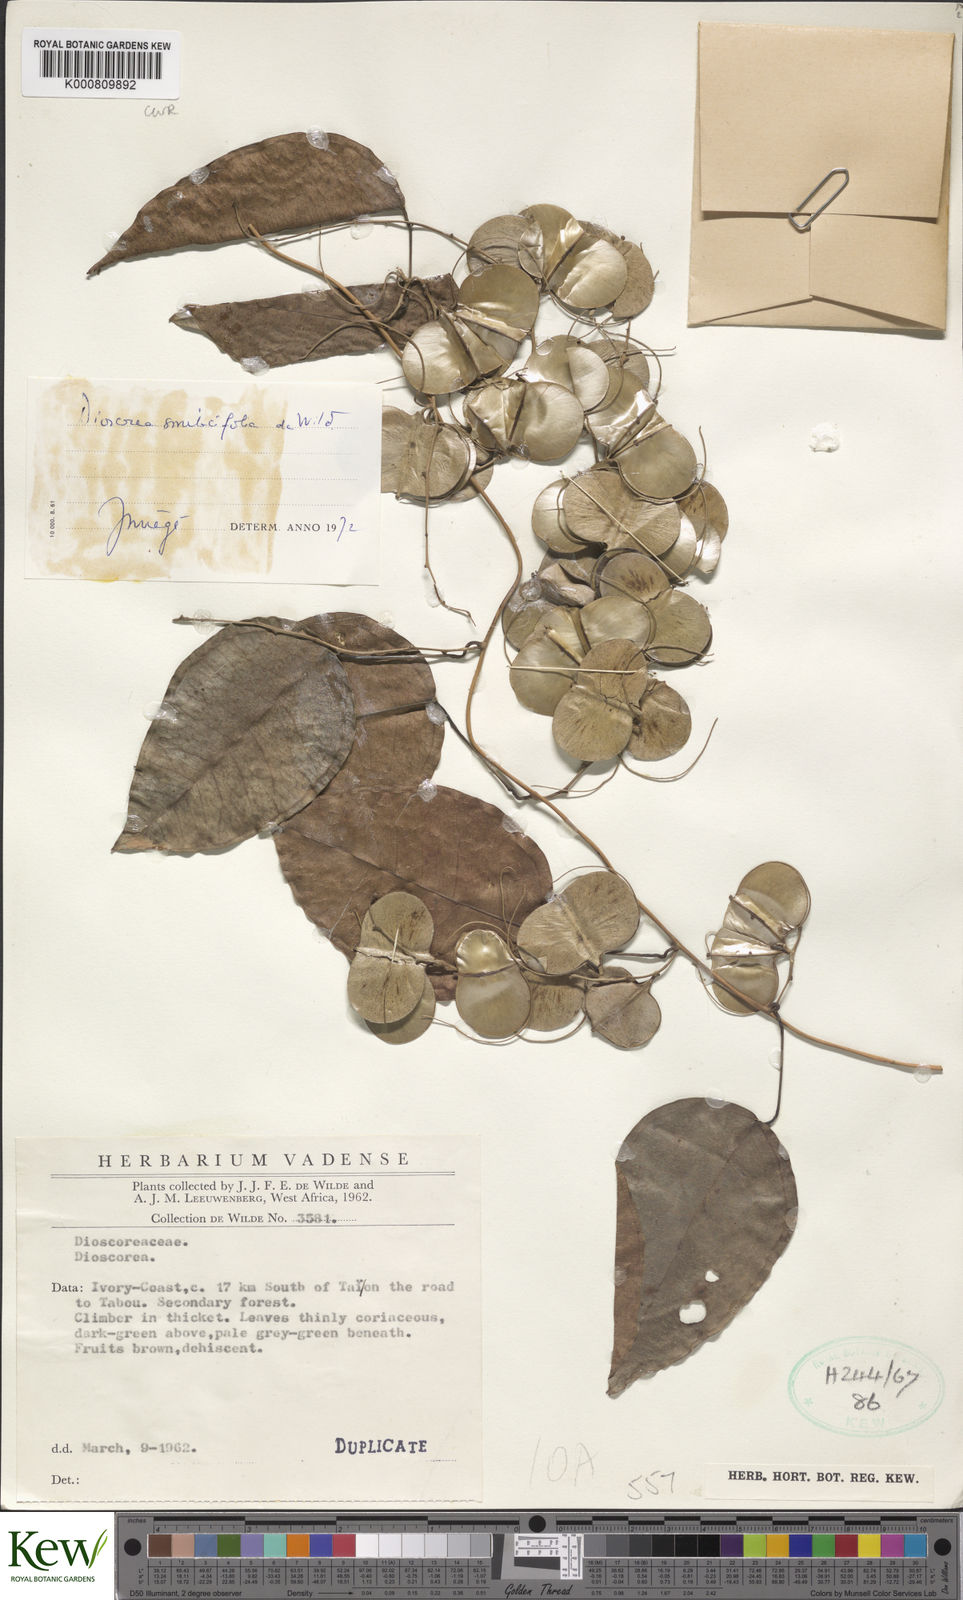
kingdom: Plantae
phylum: Tracheophyta
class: Liliopsida
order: Dioscoreales
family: Dioscoreaceae
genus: Dioscorea
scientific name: Dioscorea smilacifolia
